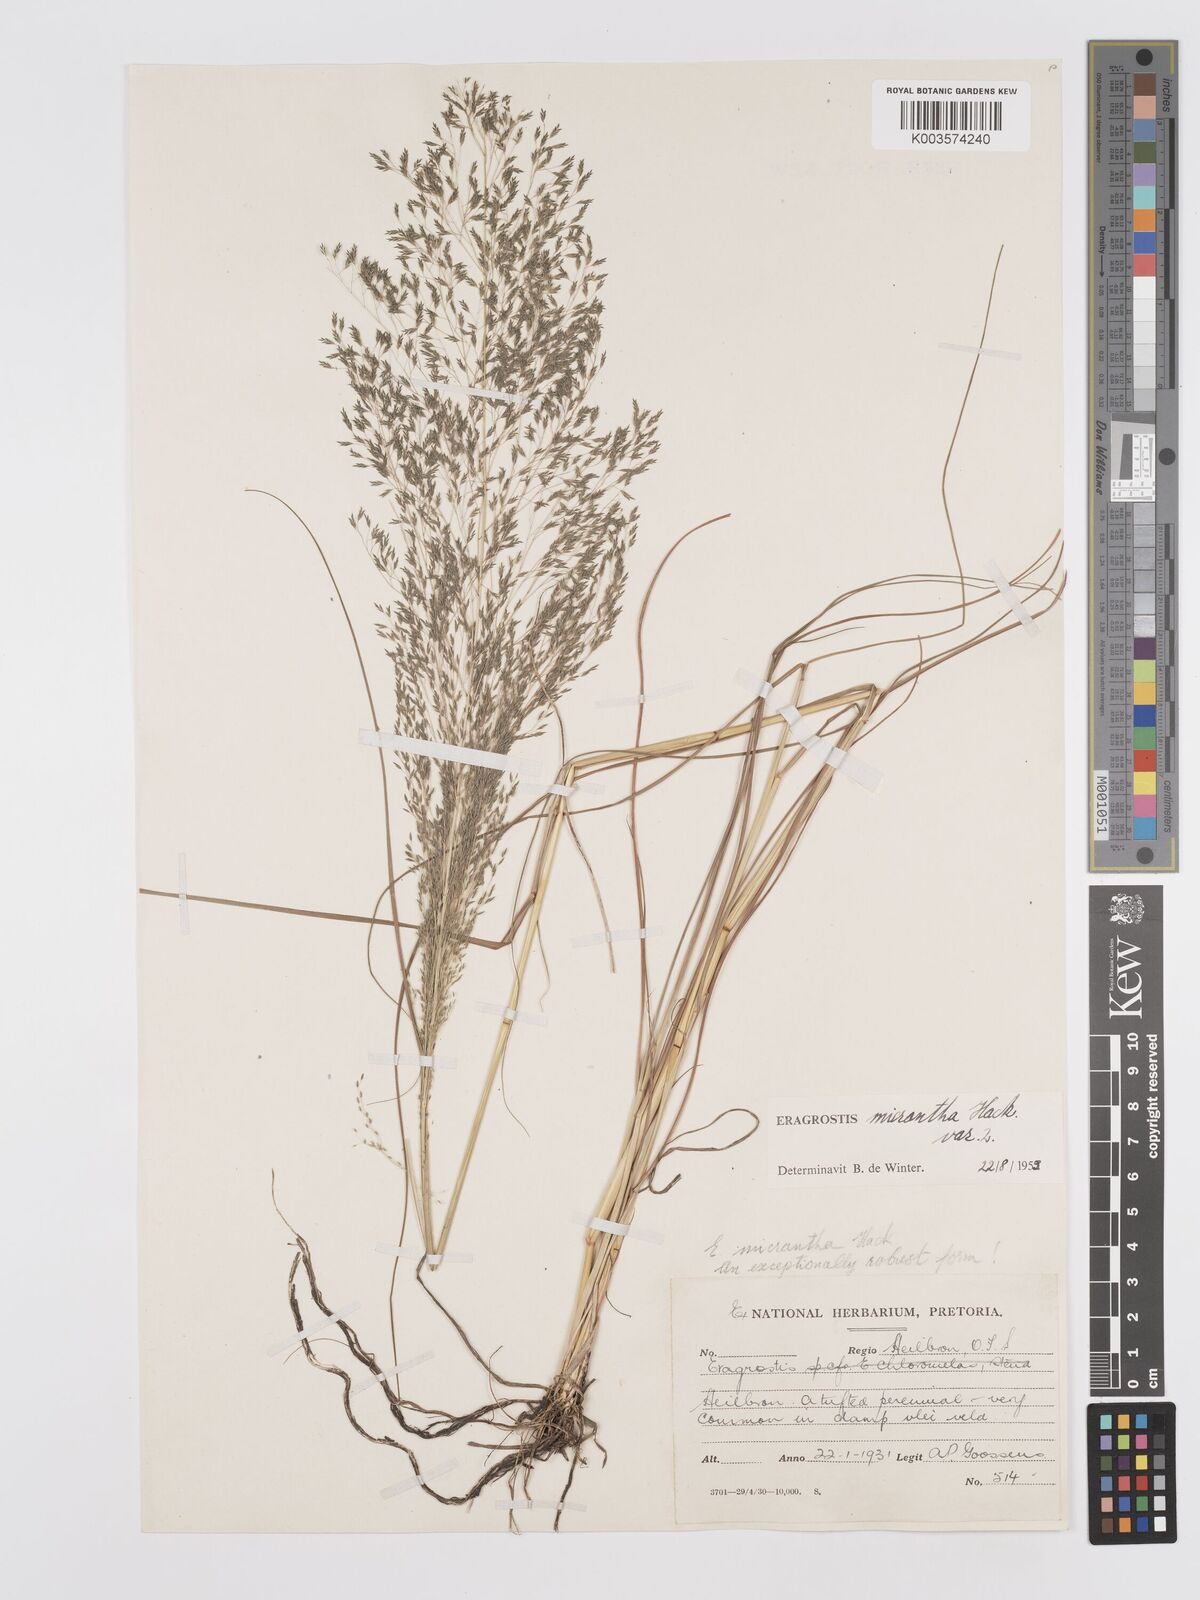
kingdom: Plantae
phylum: Tracheophyta
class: Liliopsida
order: Poales
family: Poaceae
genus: Eragrostis
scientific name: Eragrostis micrantha
